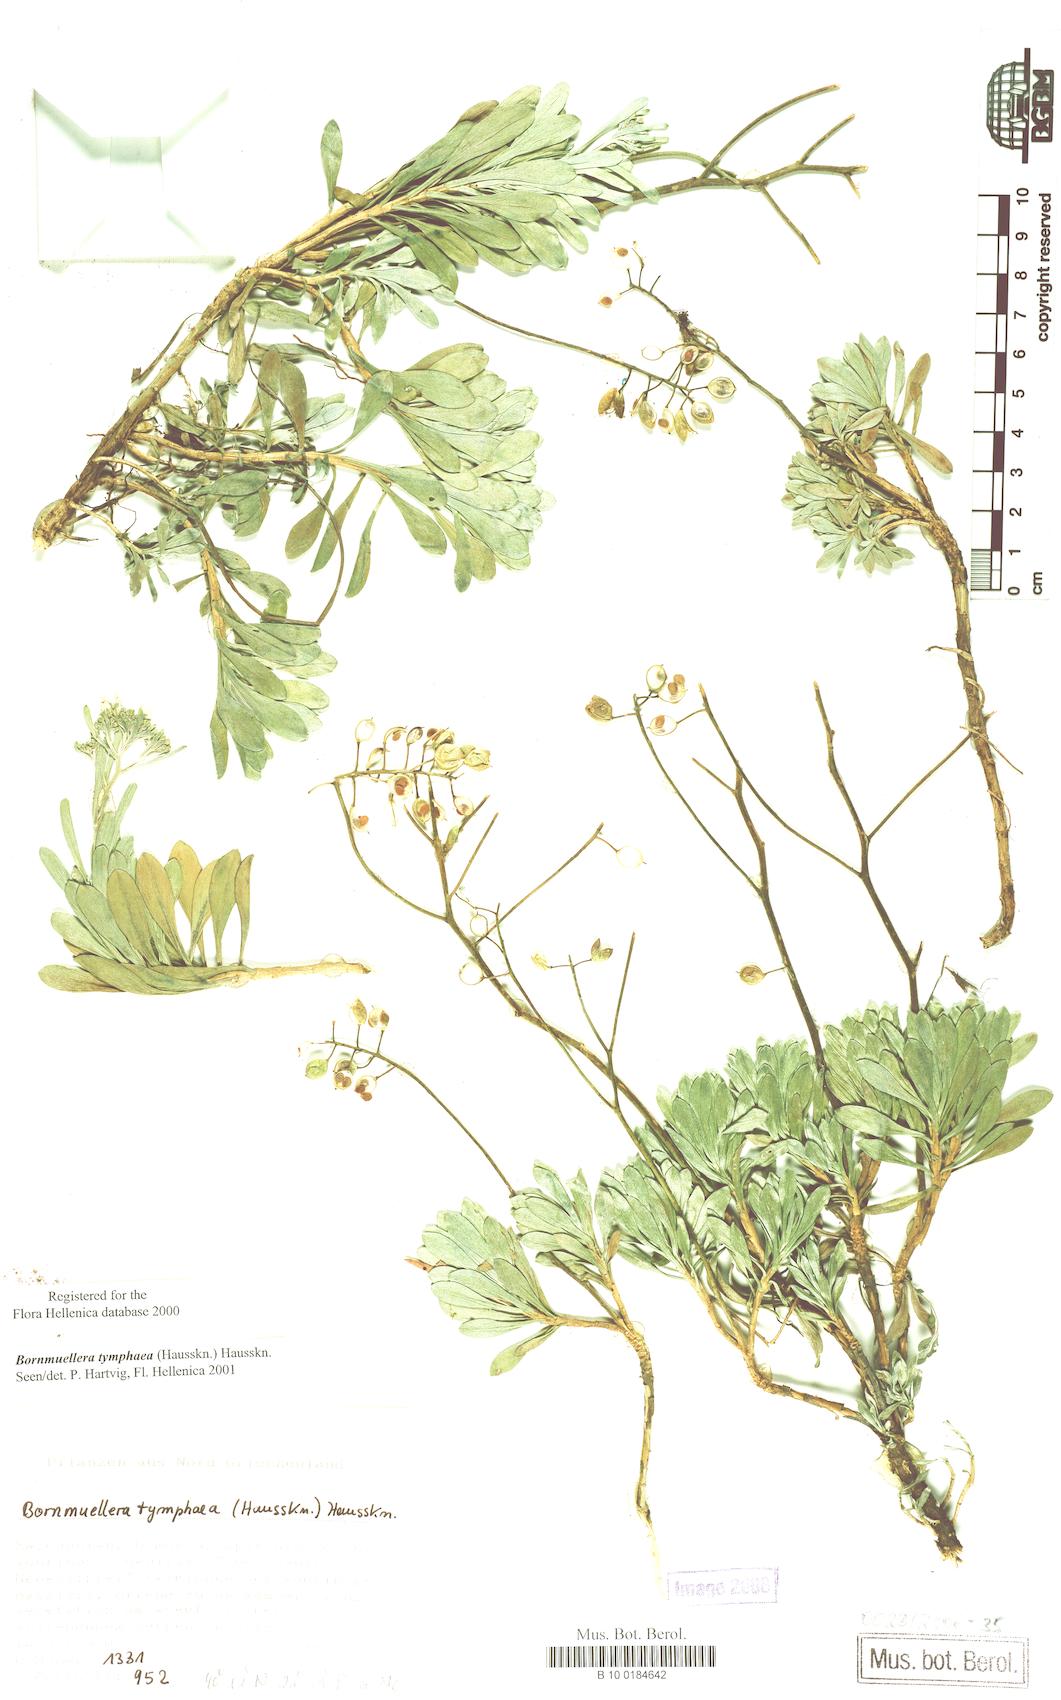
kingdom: Plantae
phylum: Tracheophyta
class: Magnoliopsida
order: Brassicales
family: Brassicaceae
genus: Bornmuellera
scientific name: Bornmuellera tymphaea
